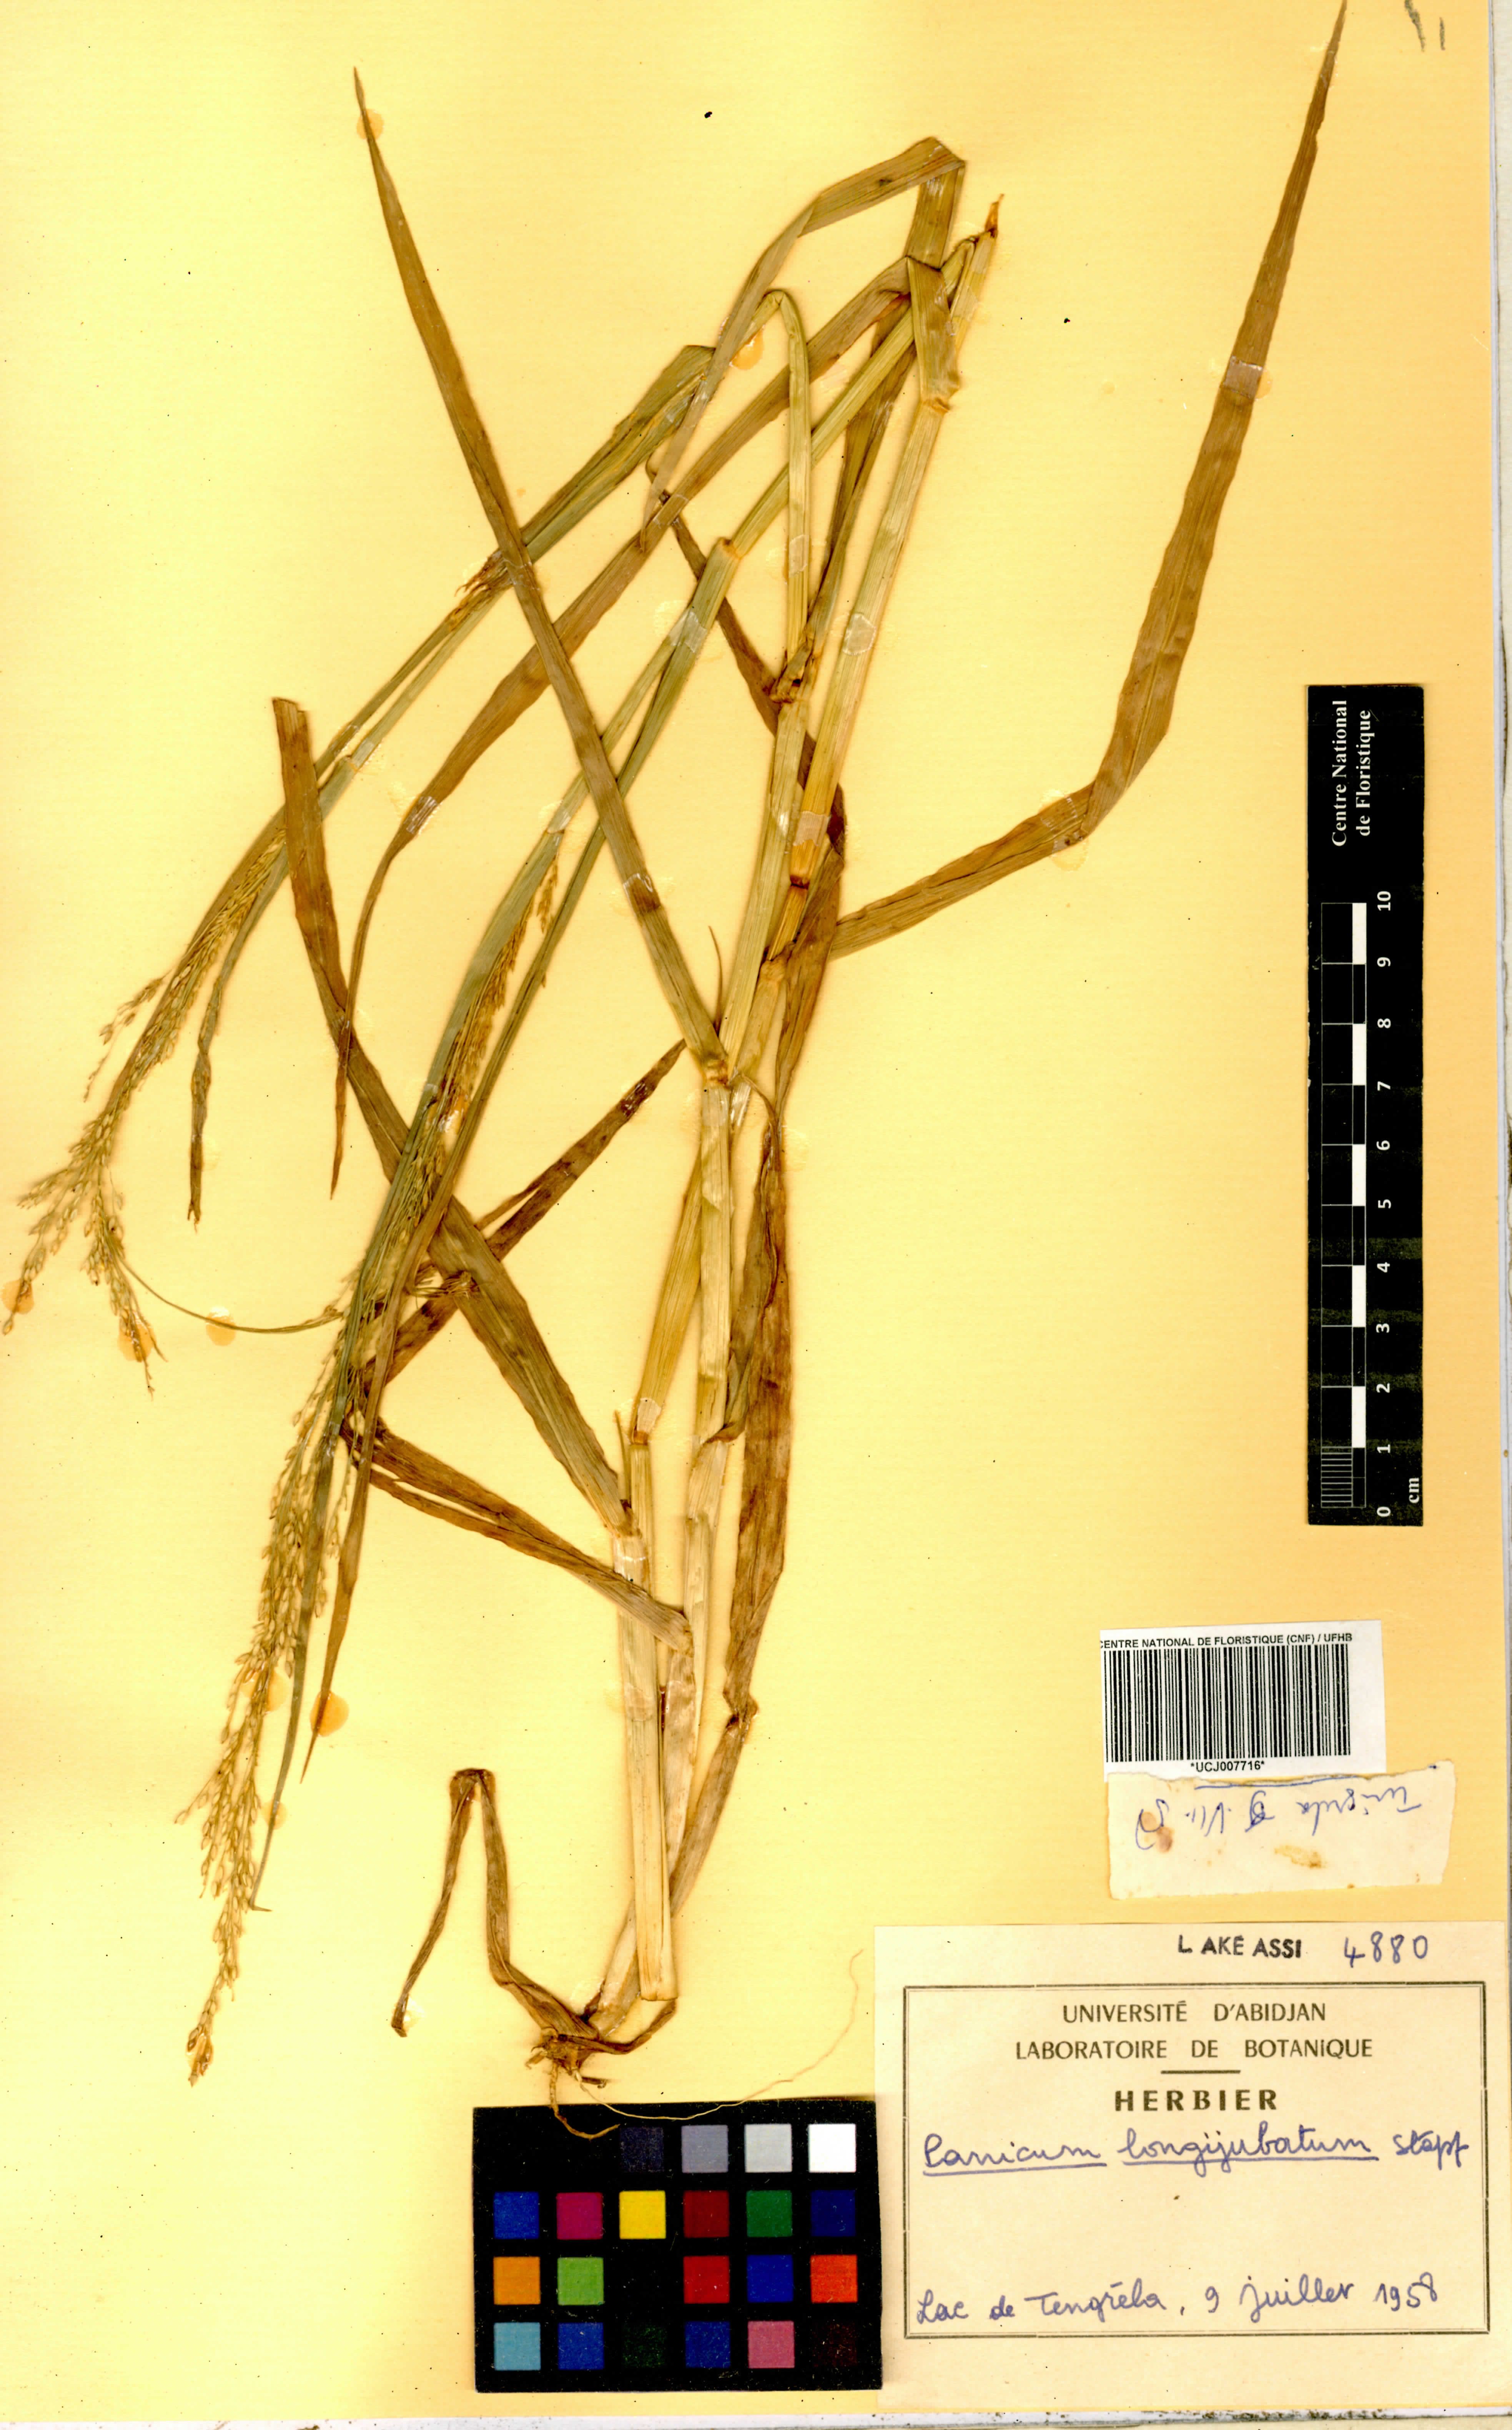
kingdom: Plantae
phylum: Tracheophyta
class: Liliopsida
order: Poales
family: Poaceae
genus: Panicum
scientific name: Panicum subalbidum
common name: Elbow buffalo grass
